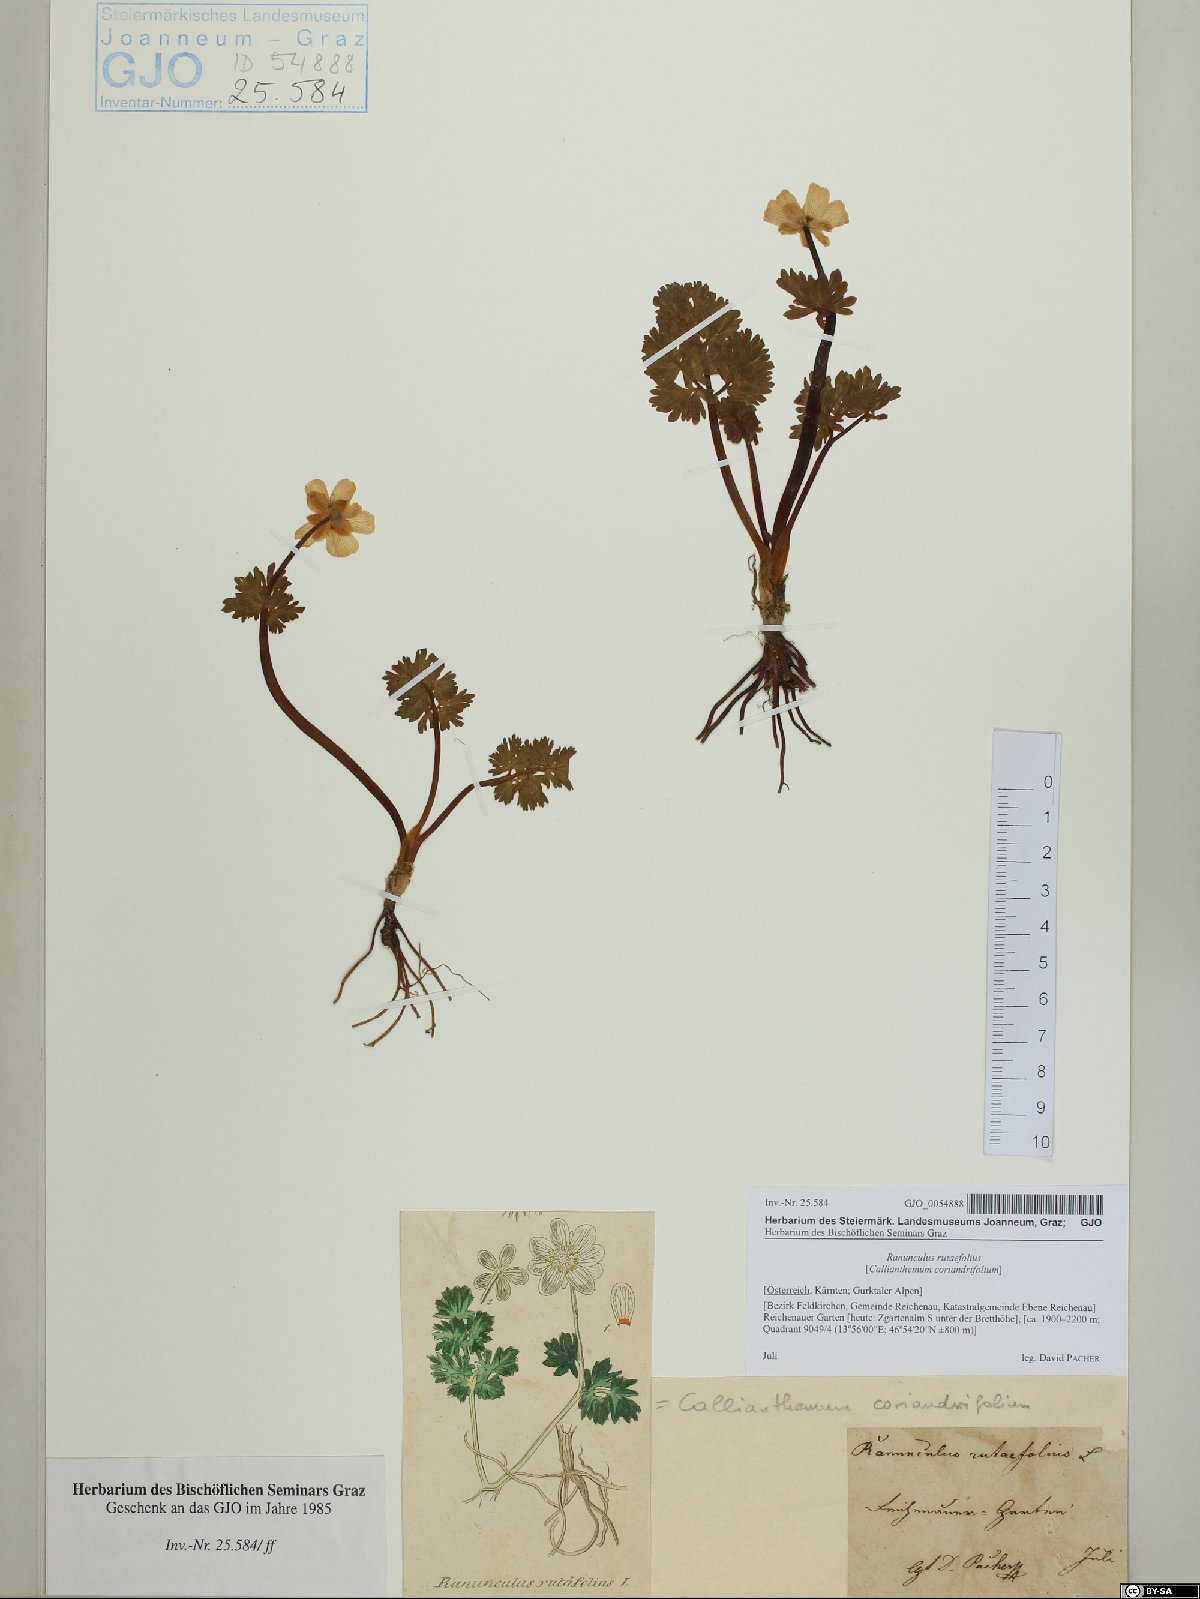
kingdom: Plantae
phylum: Tracheophyta
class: Magnoliopsida
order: Ranunculales
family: Ranunculaceae
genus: Callianthemum
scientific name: Callianthemum anemonoides
